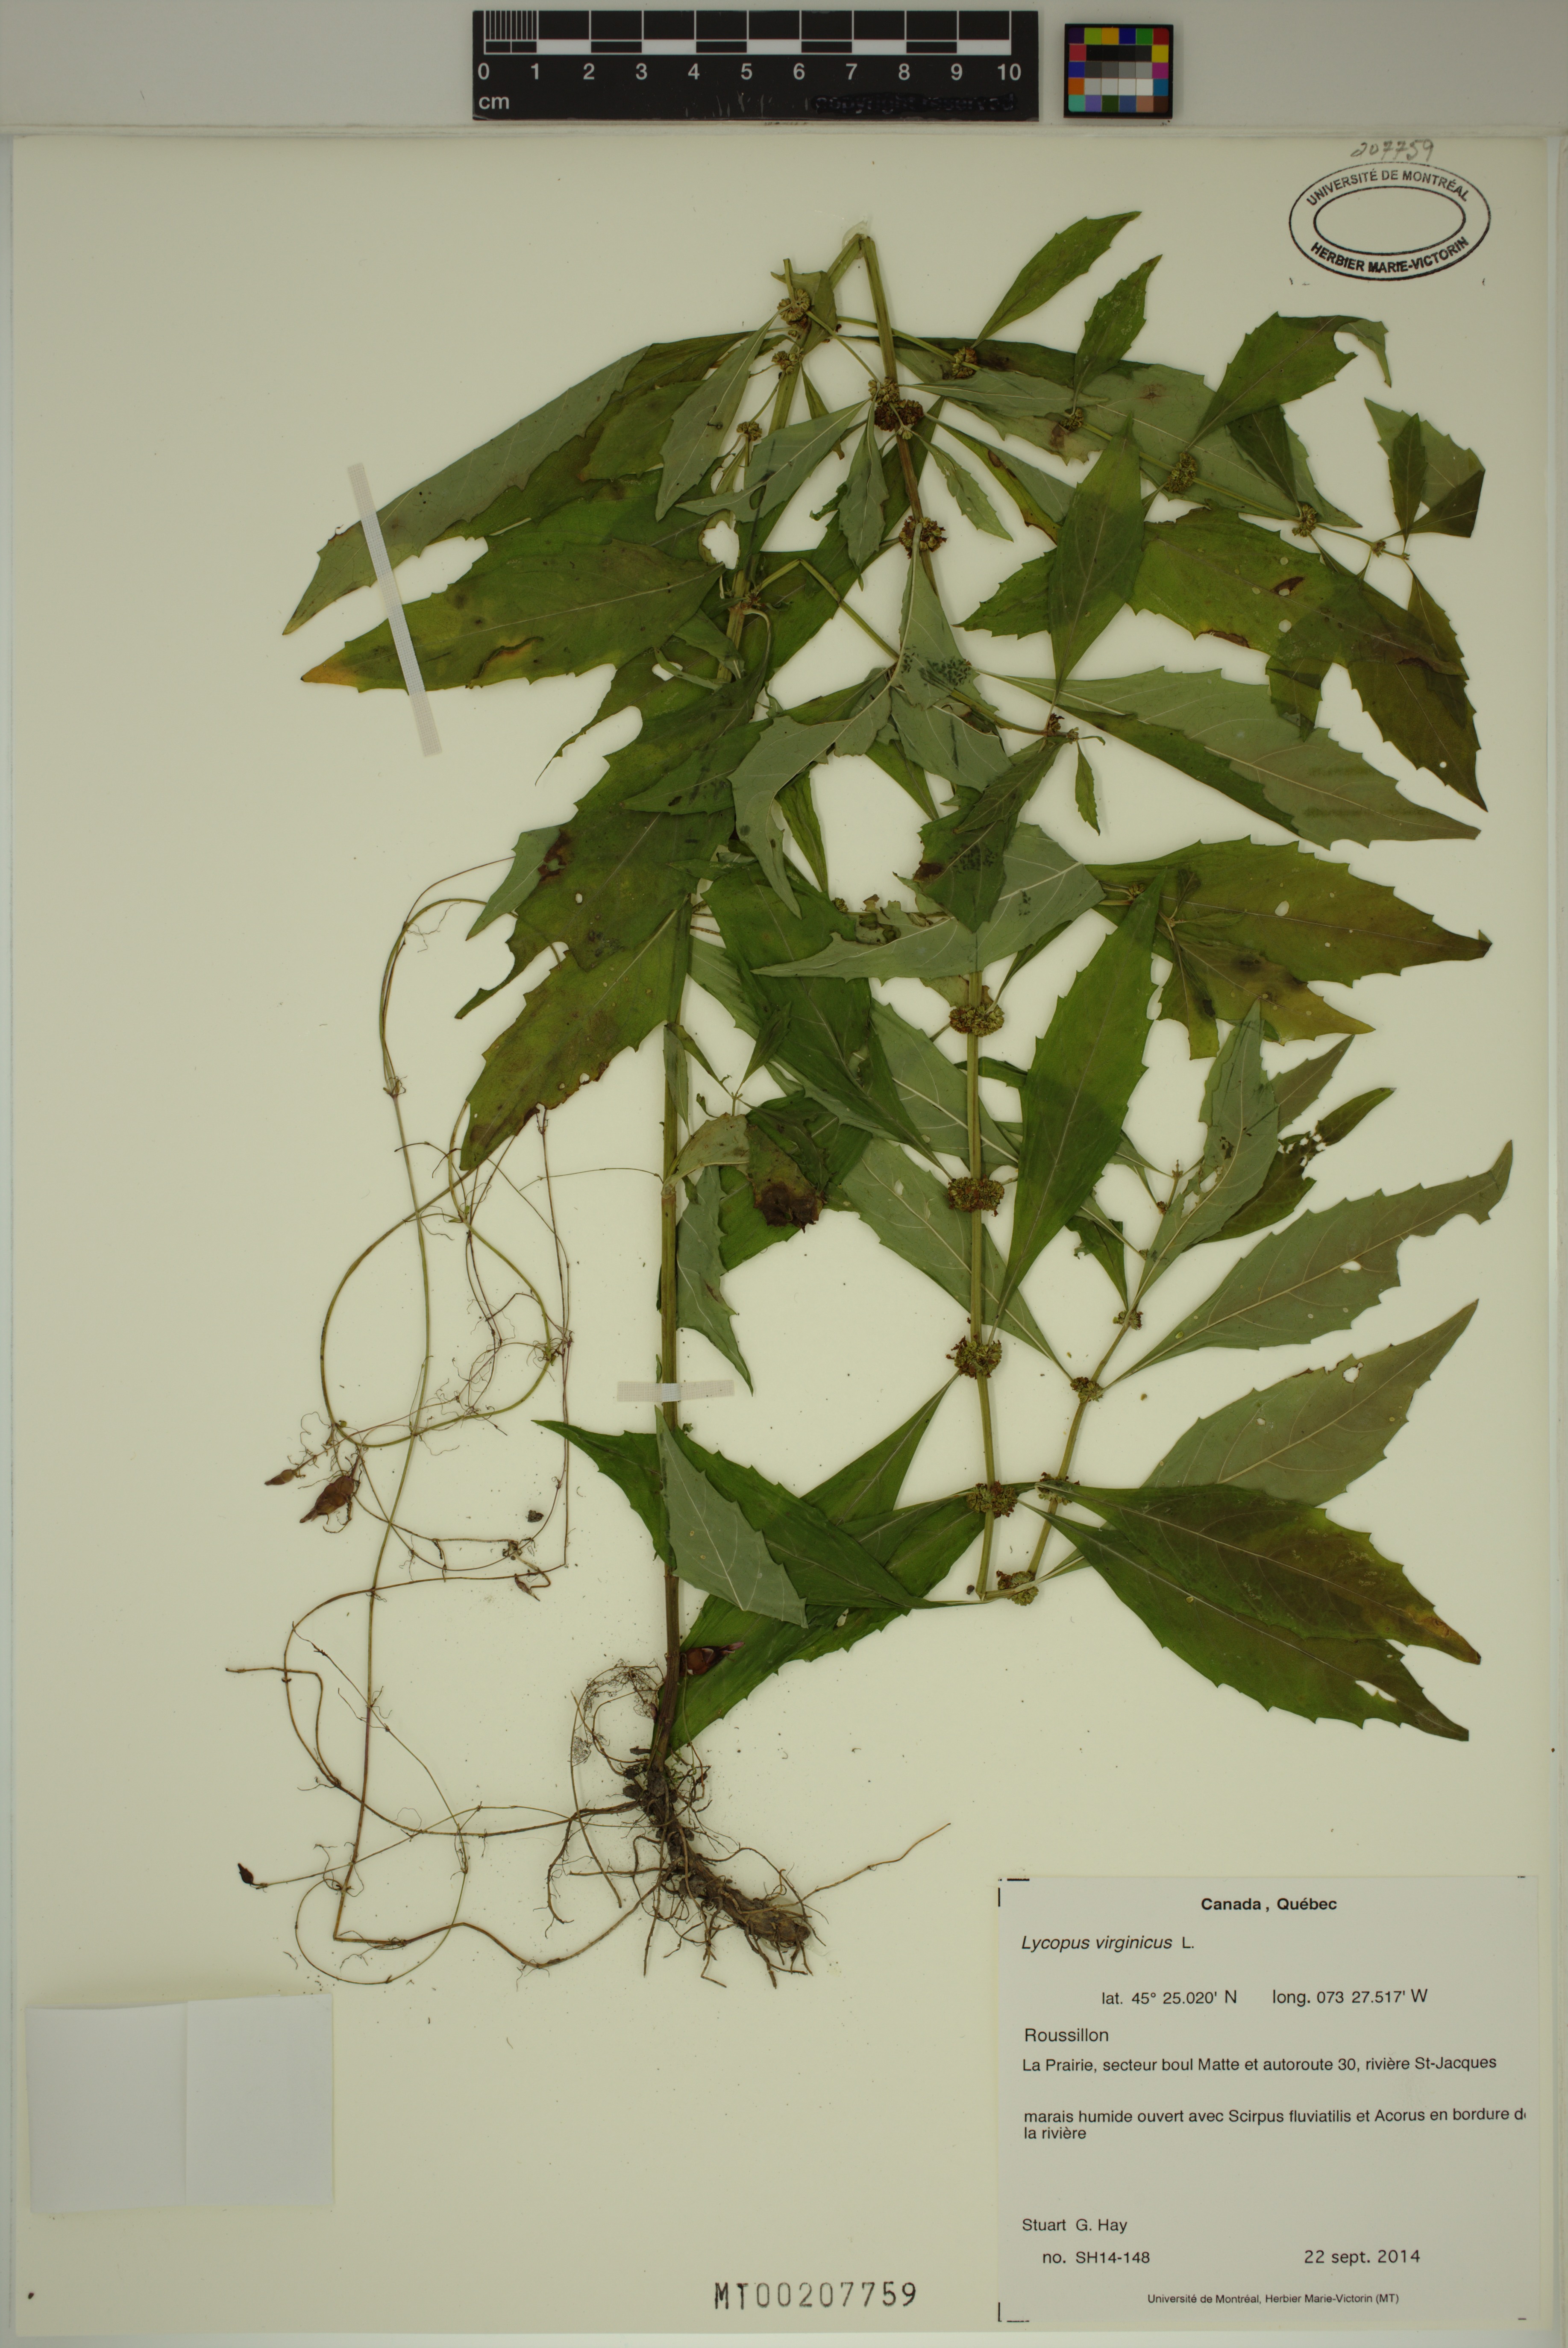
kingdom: Plantae
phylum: Tracheophyta
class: Magnoliopsida
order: Lamiales
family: Lamiaceae
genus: Lycopus
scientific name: Lycopus virginicus
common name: Bugleweed
